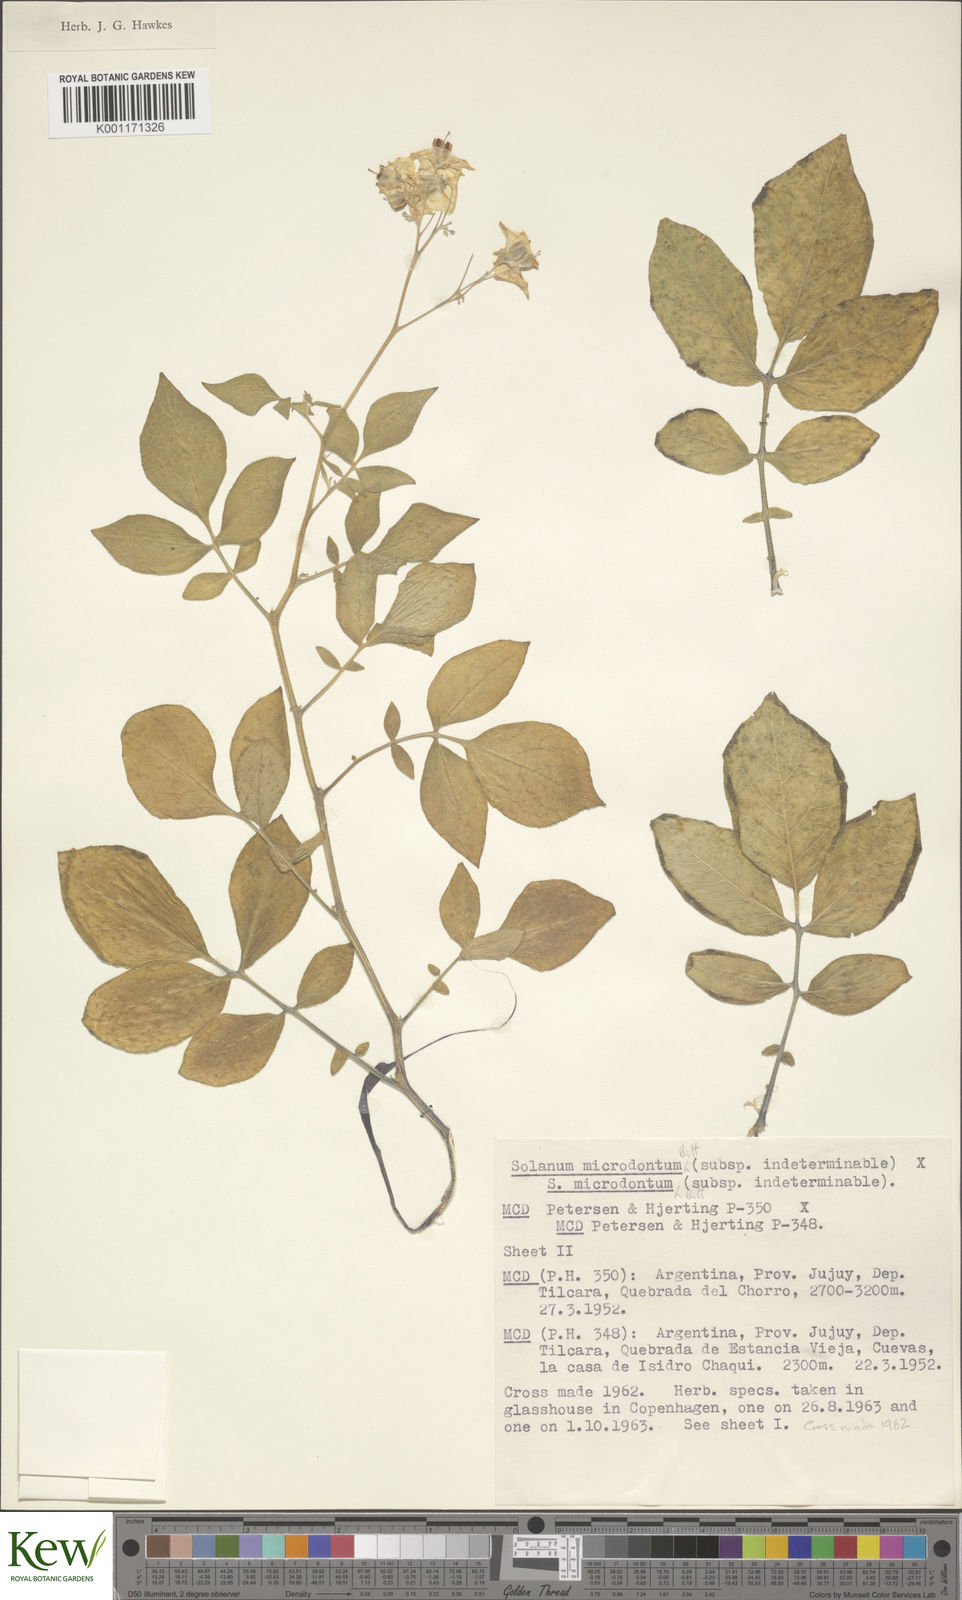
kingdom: Plantae
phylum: Tracheophyta
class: Magnoliopsida
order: Solanales
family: Solanaceae
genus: Solanum
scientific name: Solanum microdontum
